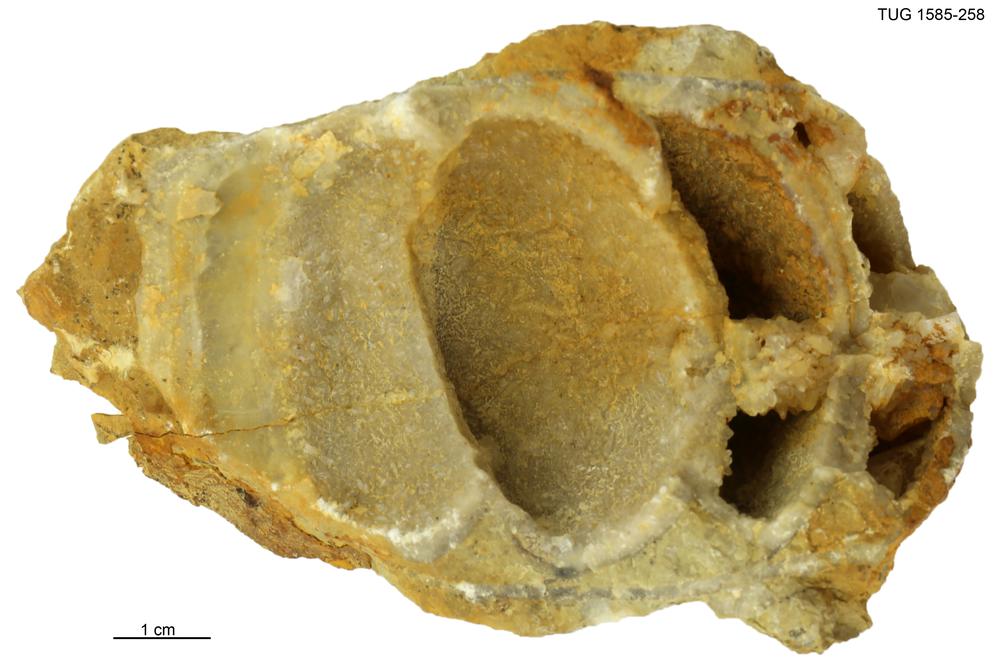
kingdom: Animalia
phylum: Mollusca
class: Cephalopoda
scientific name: Cephalopoda
